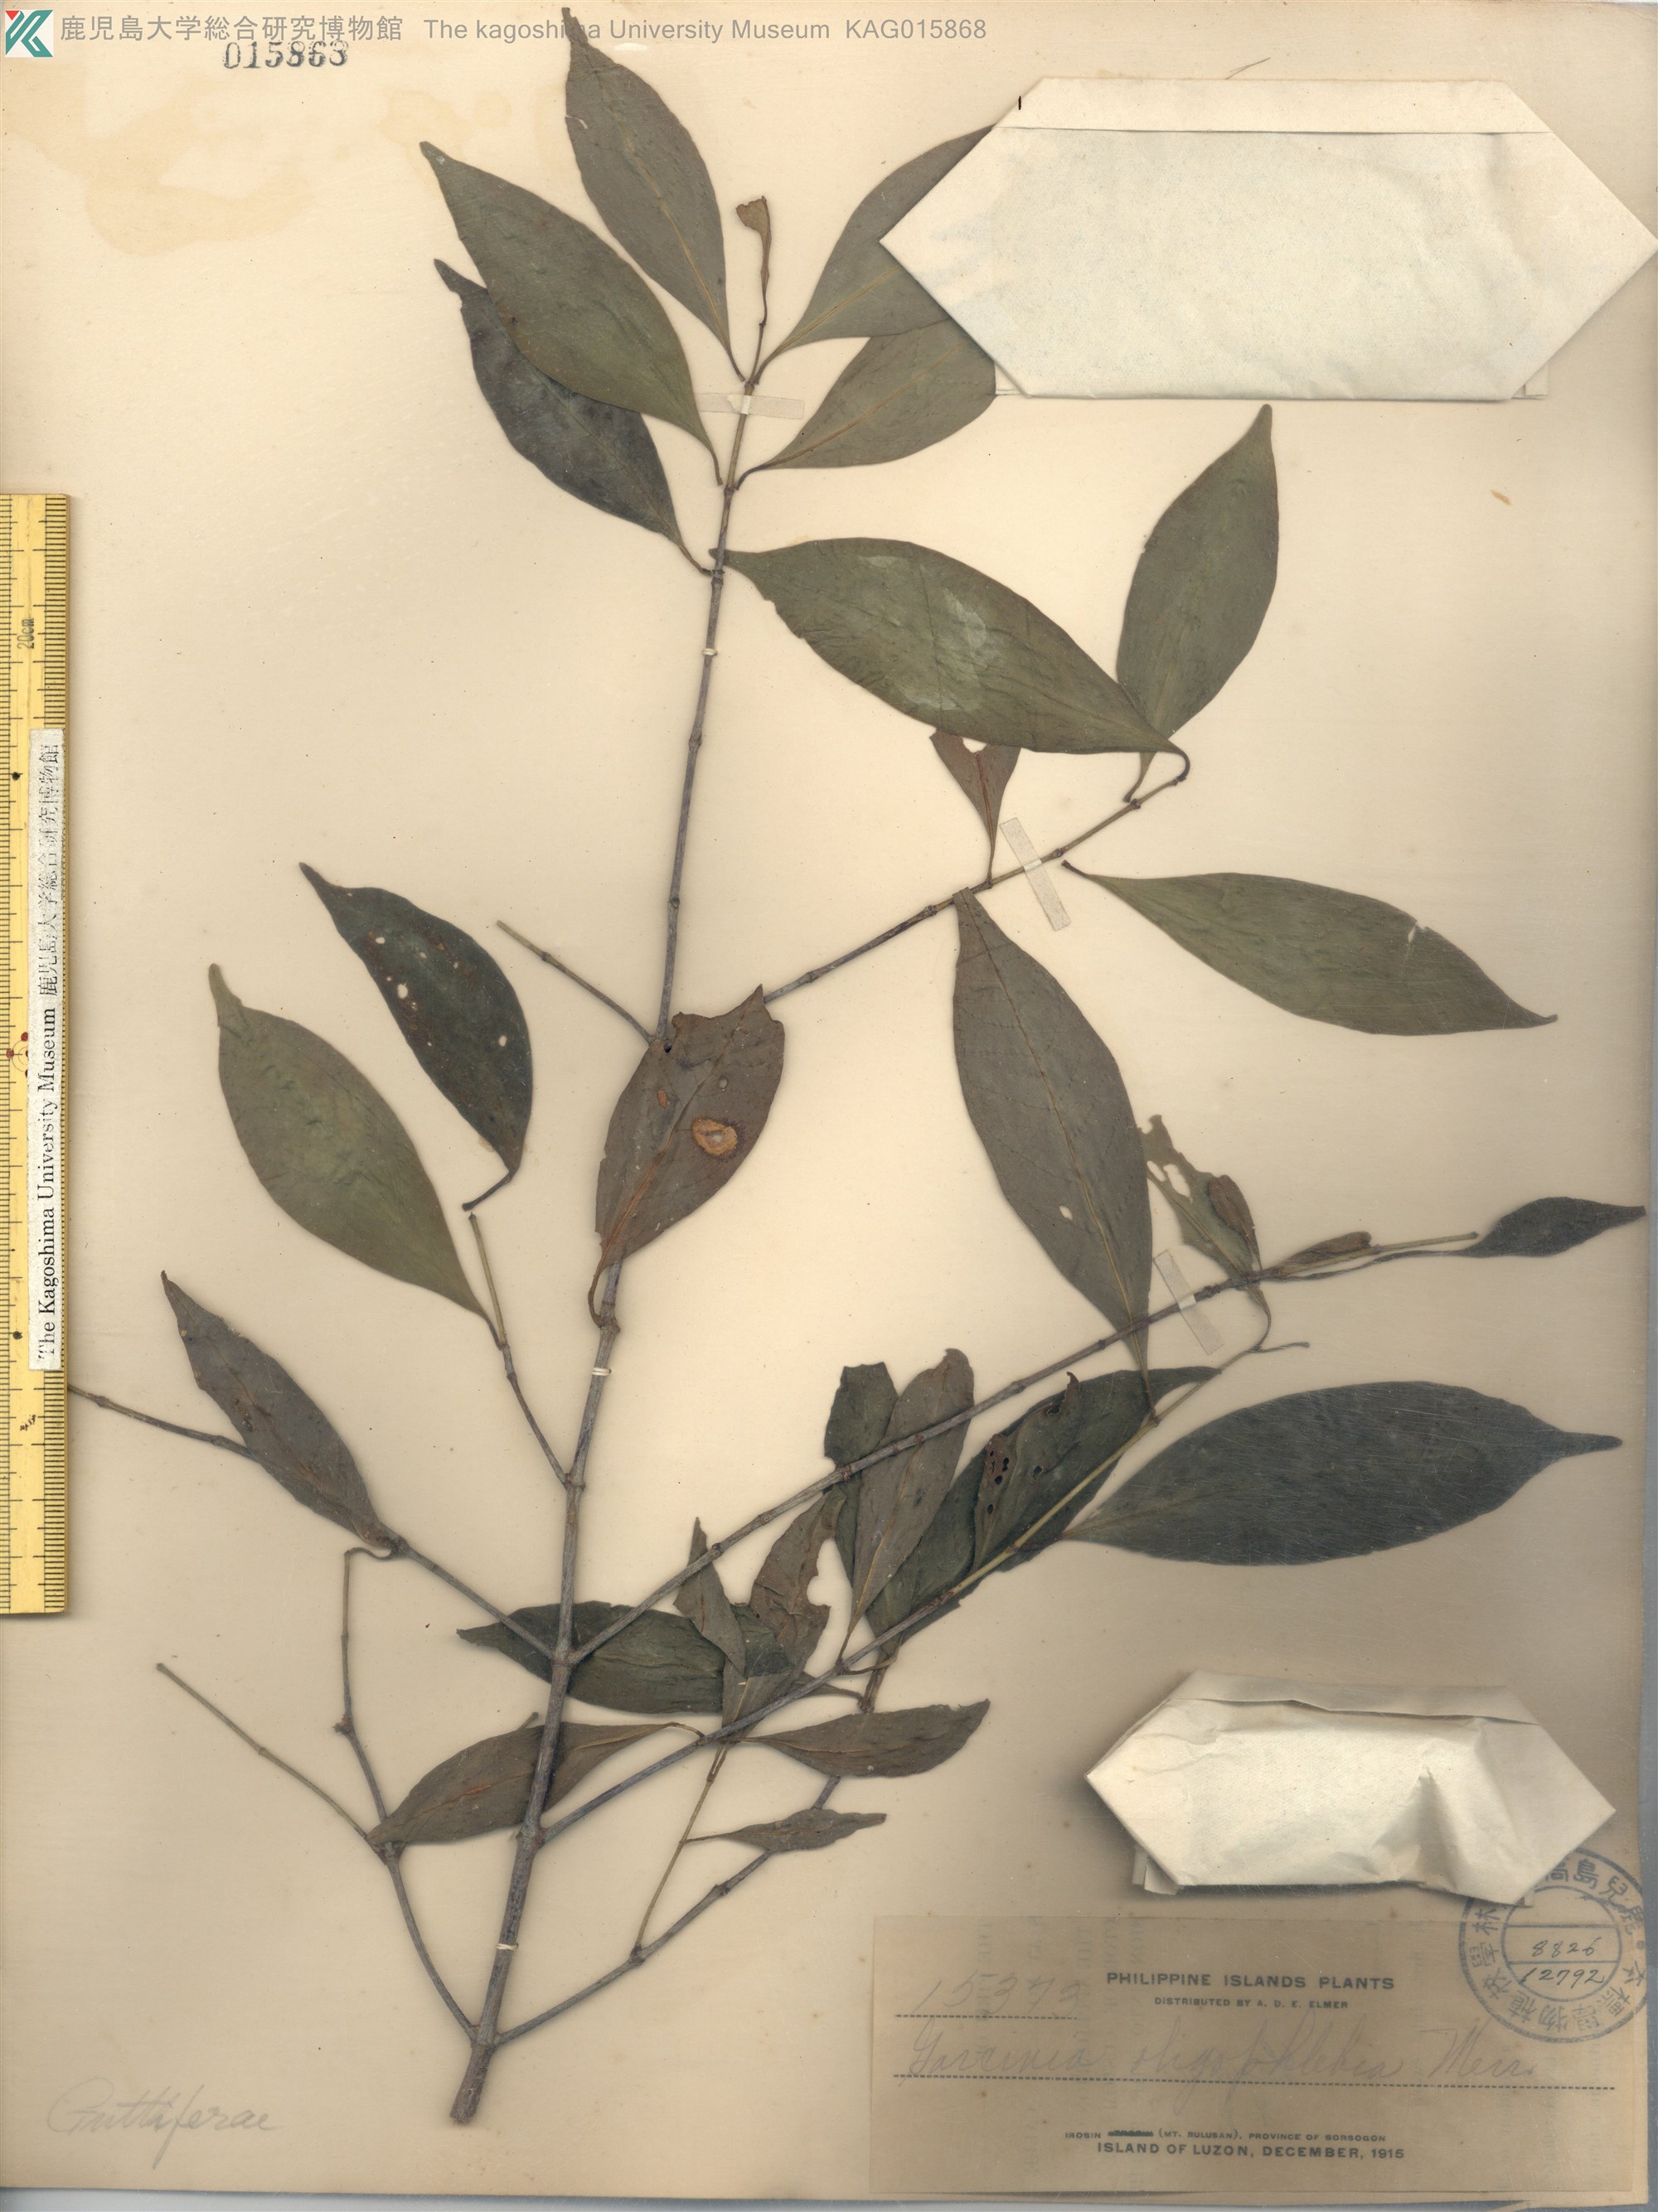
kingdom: Plantae
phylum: Tracheophyta
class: Magnoliopsida
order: Malpighiales
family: Clusiaceae
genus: Garcinia
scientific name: Garcinia rubra
